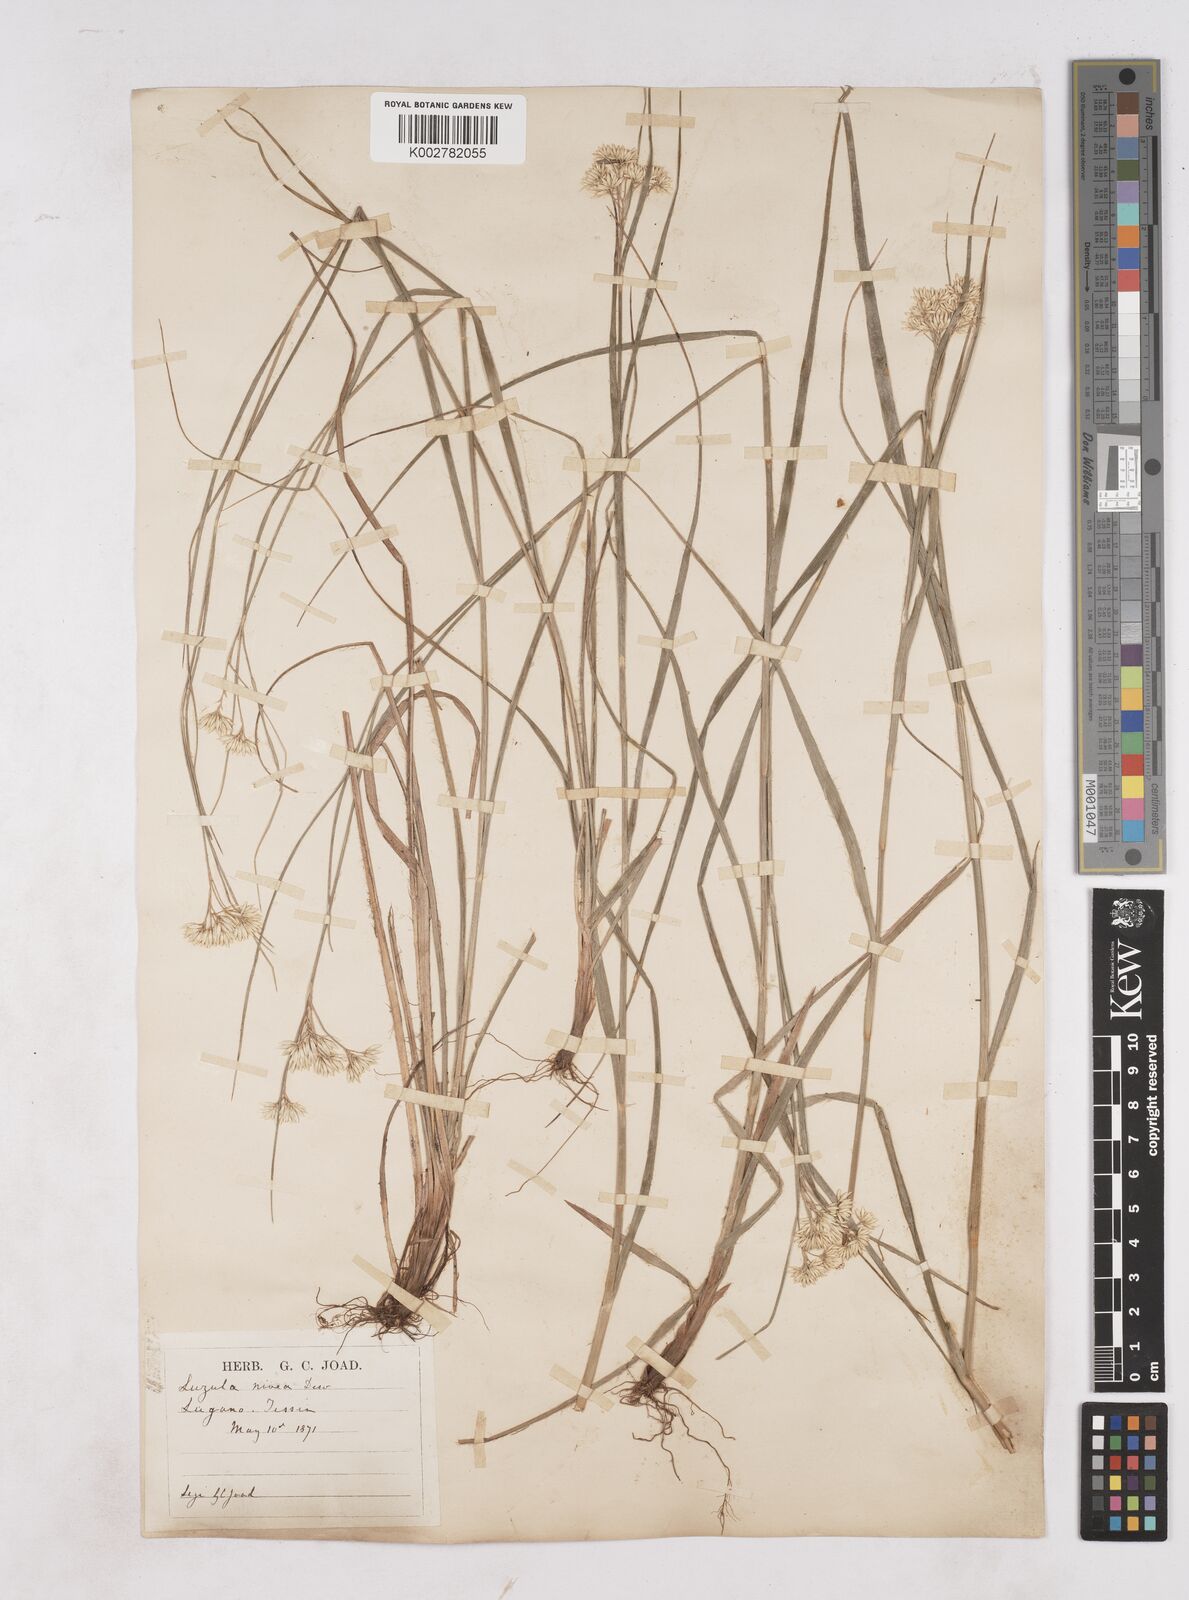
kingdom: Plantae
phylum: Tracheophyta
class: Liliopsida
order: Poales
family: Juncaceae
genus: Luzula
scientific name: Luzula nivea
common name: Snow-white wood-rush
